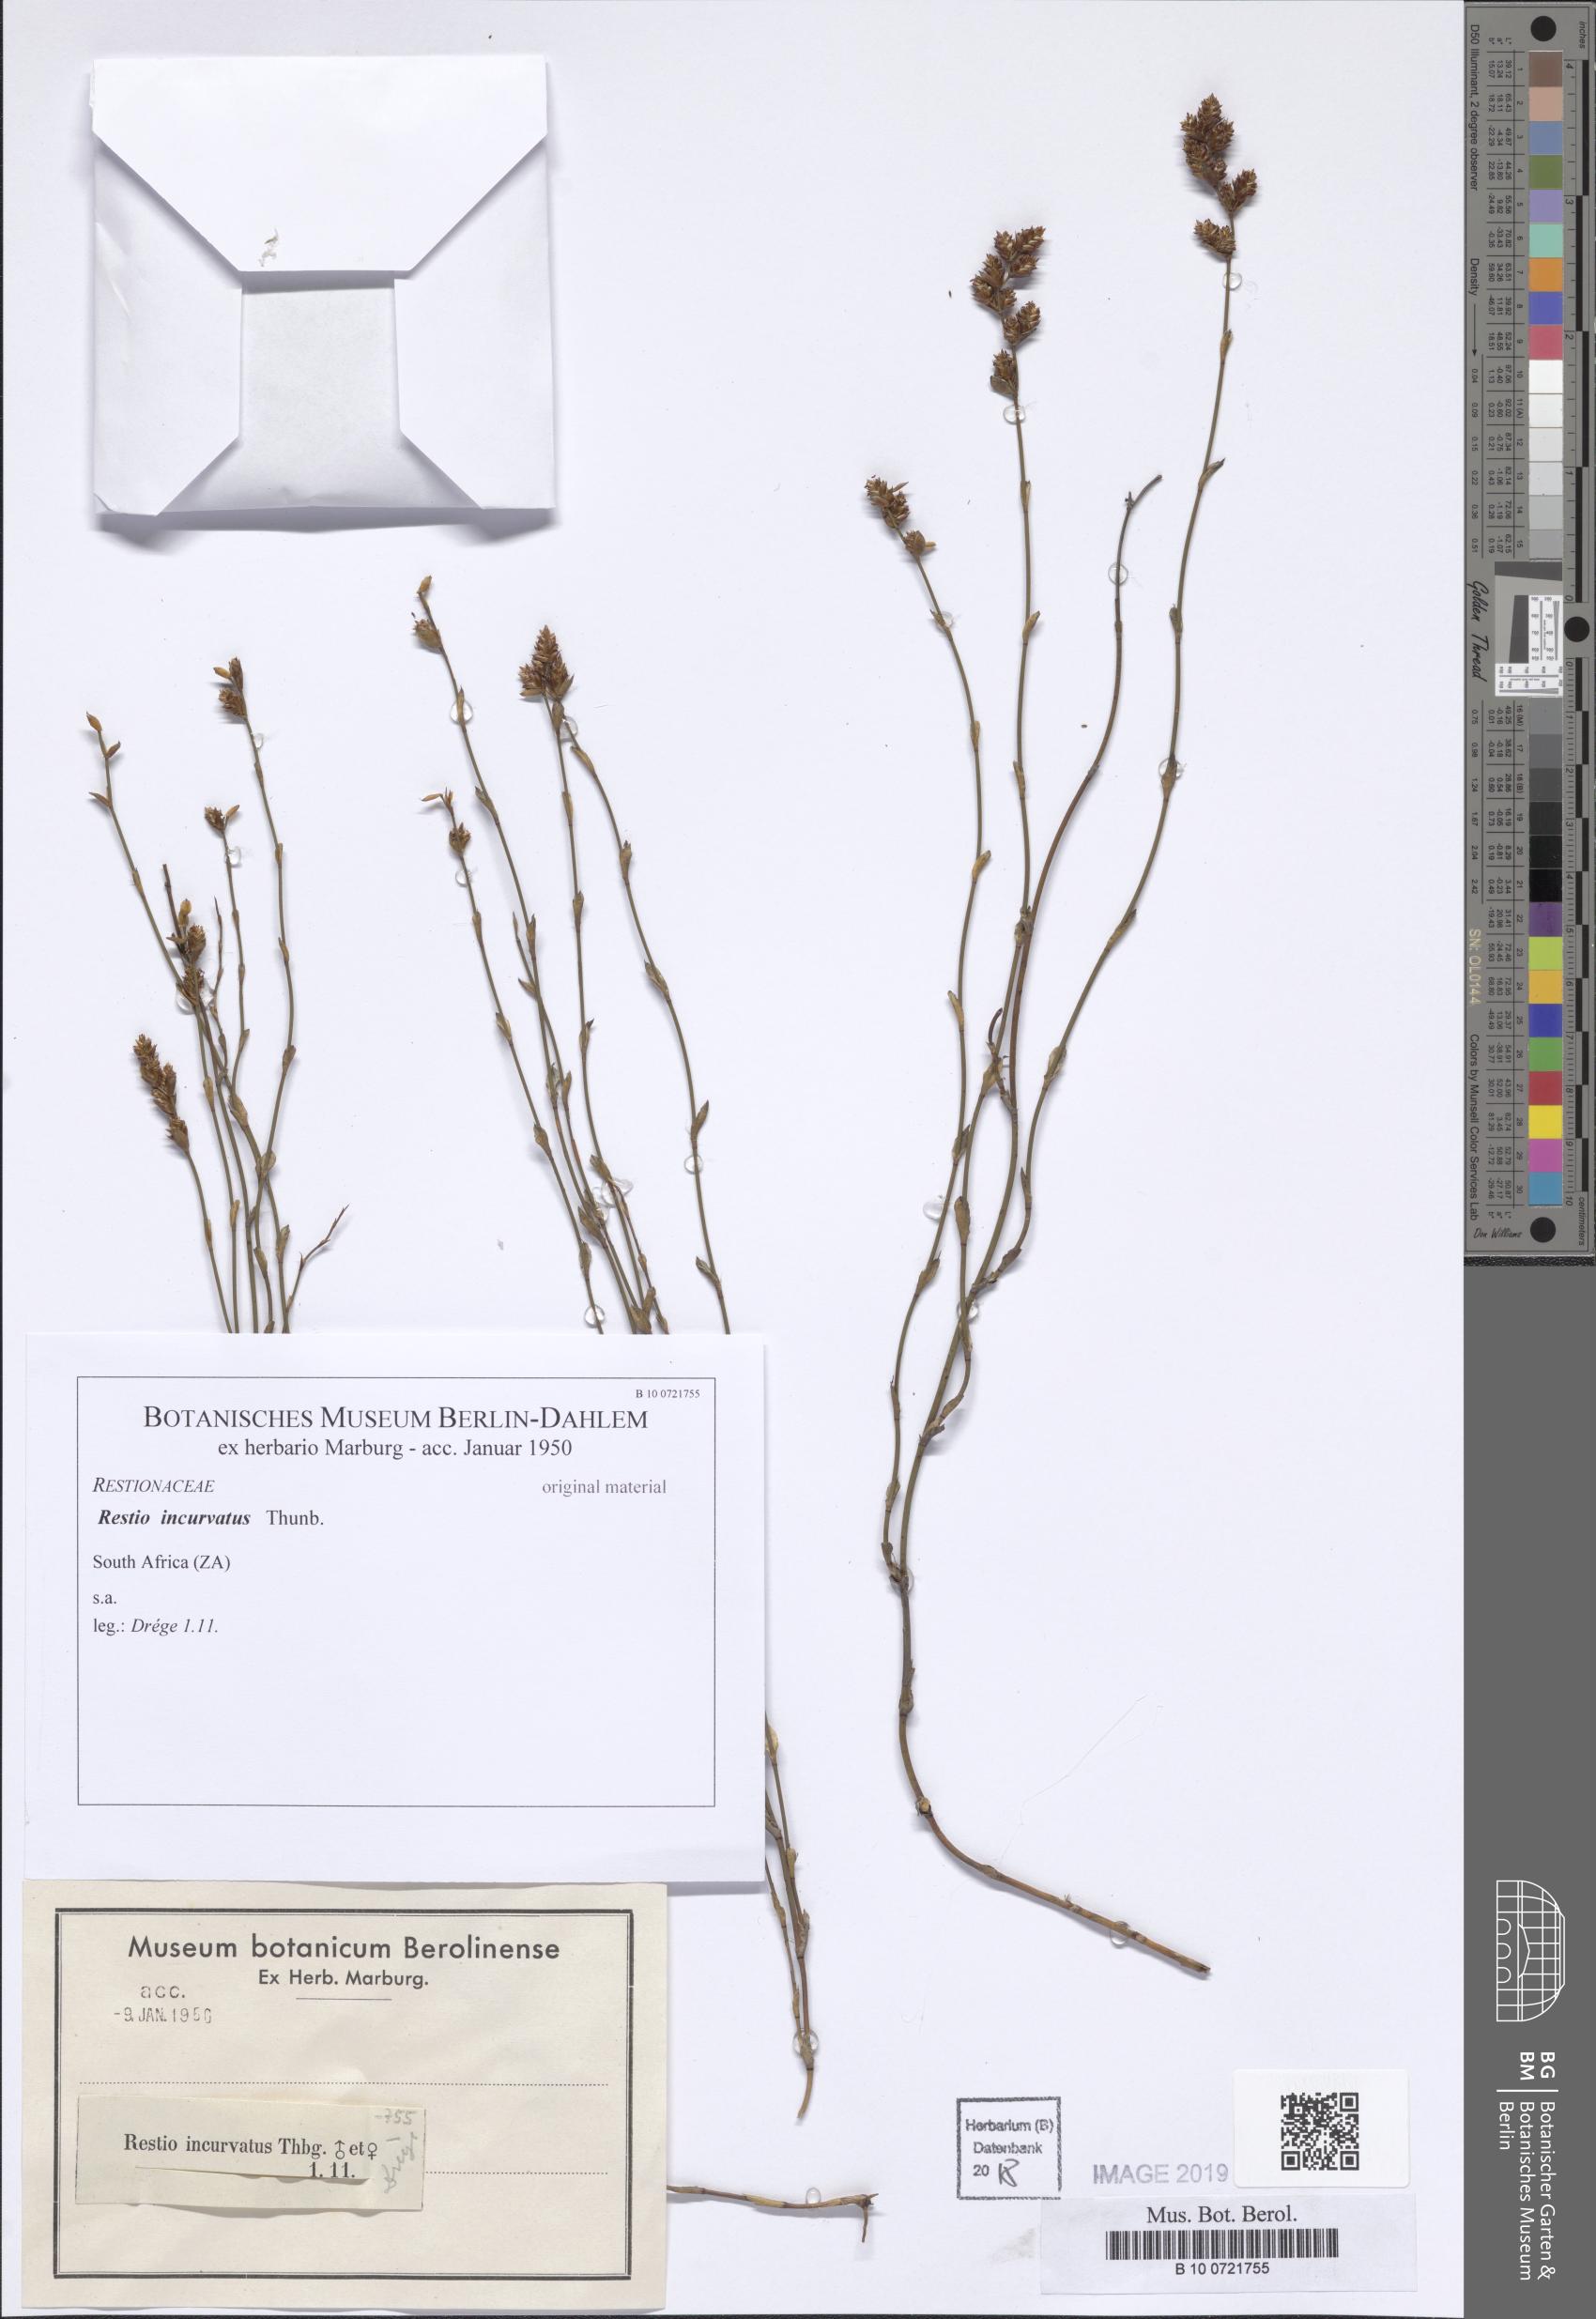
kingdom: Plantae
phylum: Tracheophyta
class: Liliopsida
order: Poales
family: Restionaceae
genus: Willdenowia
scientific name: Willdenowia incurvata
